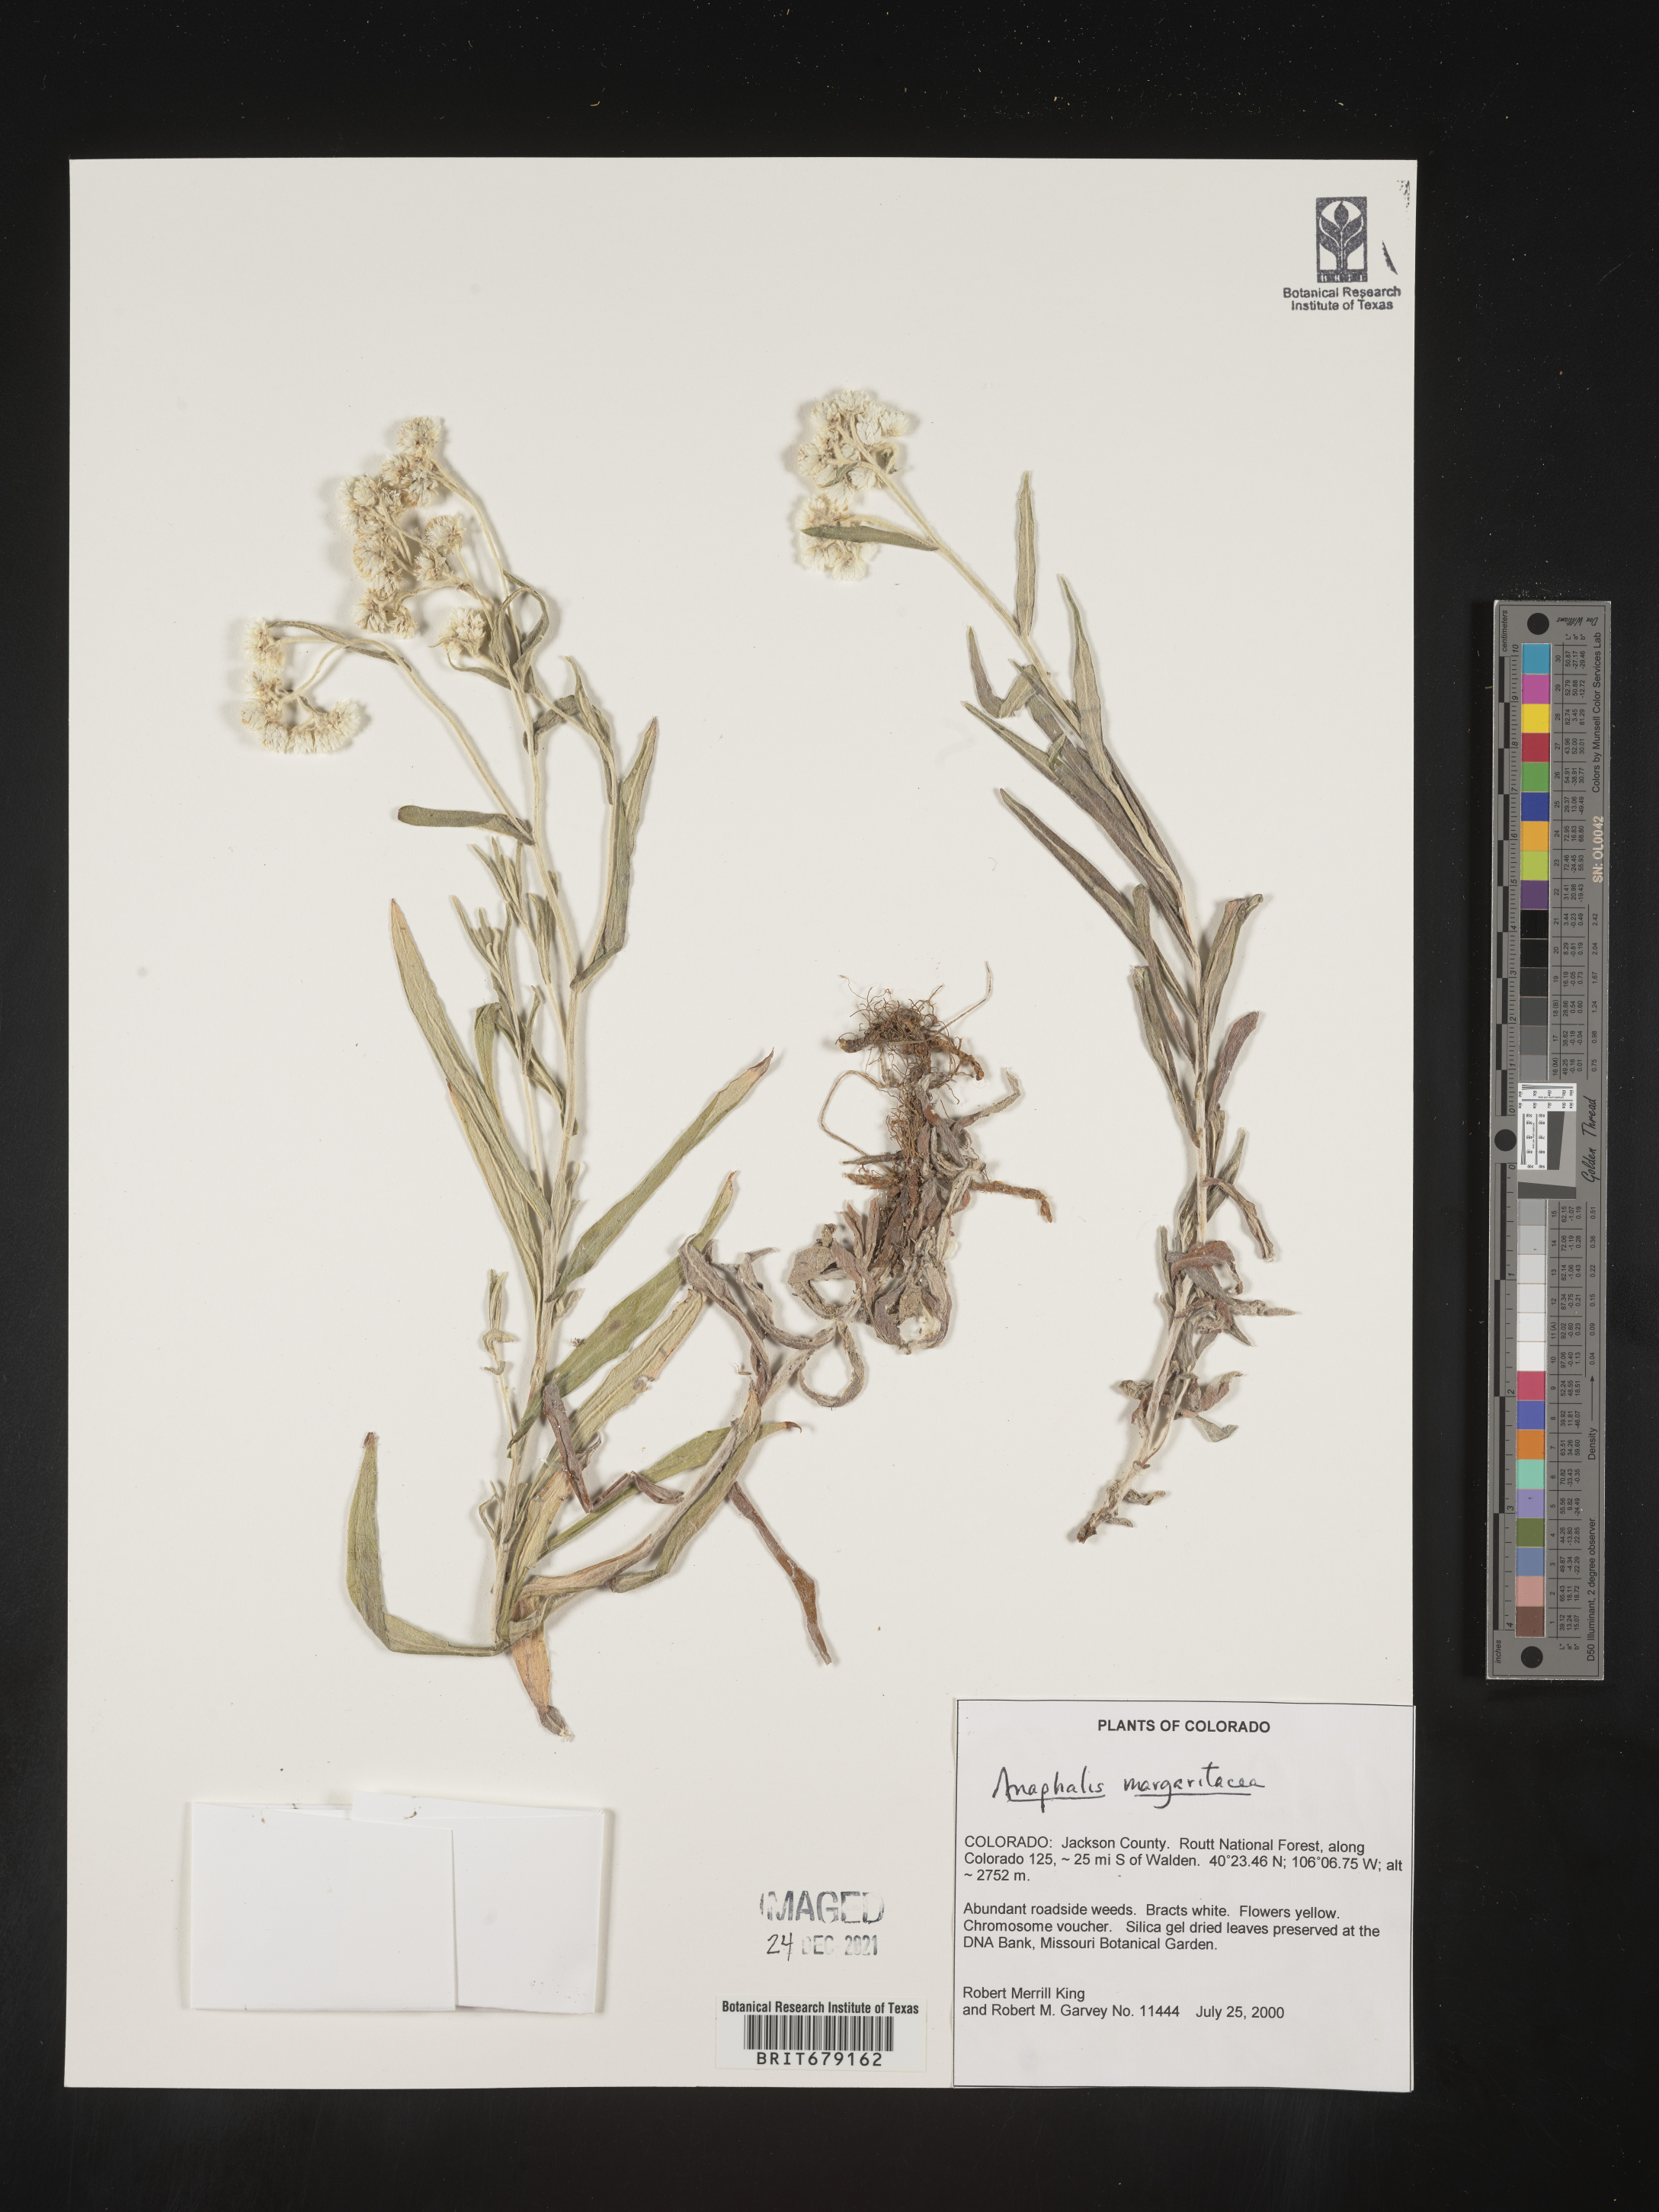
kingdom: Plantae
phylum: Tracheophyta
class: Magnoliopsida
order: Asterales
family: Asteraceae
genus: Anaphalis
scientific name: Anaphalis margaritacea
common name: Pearly everlasting
